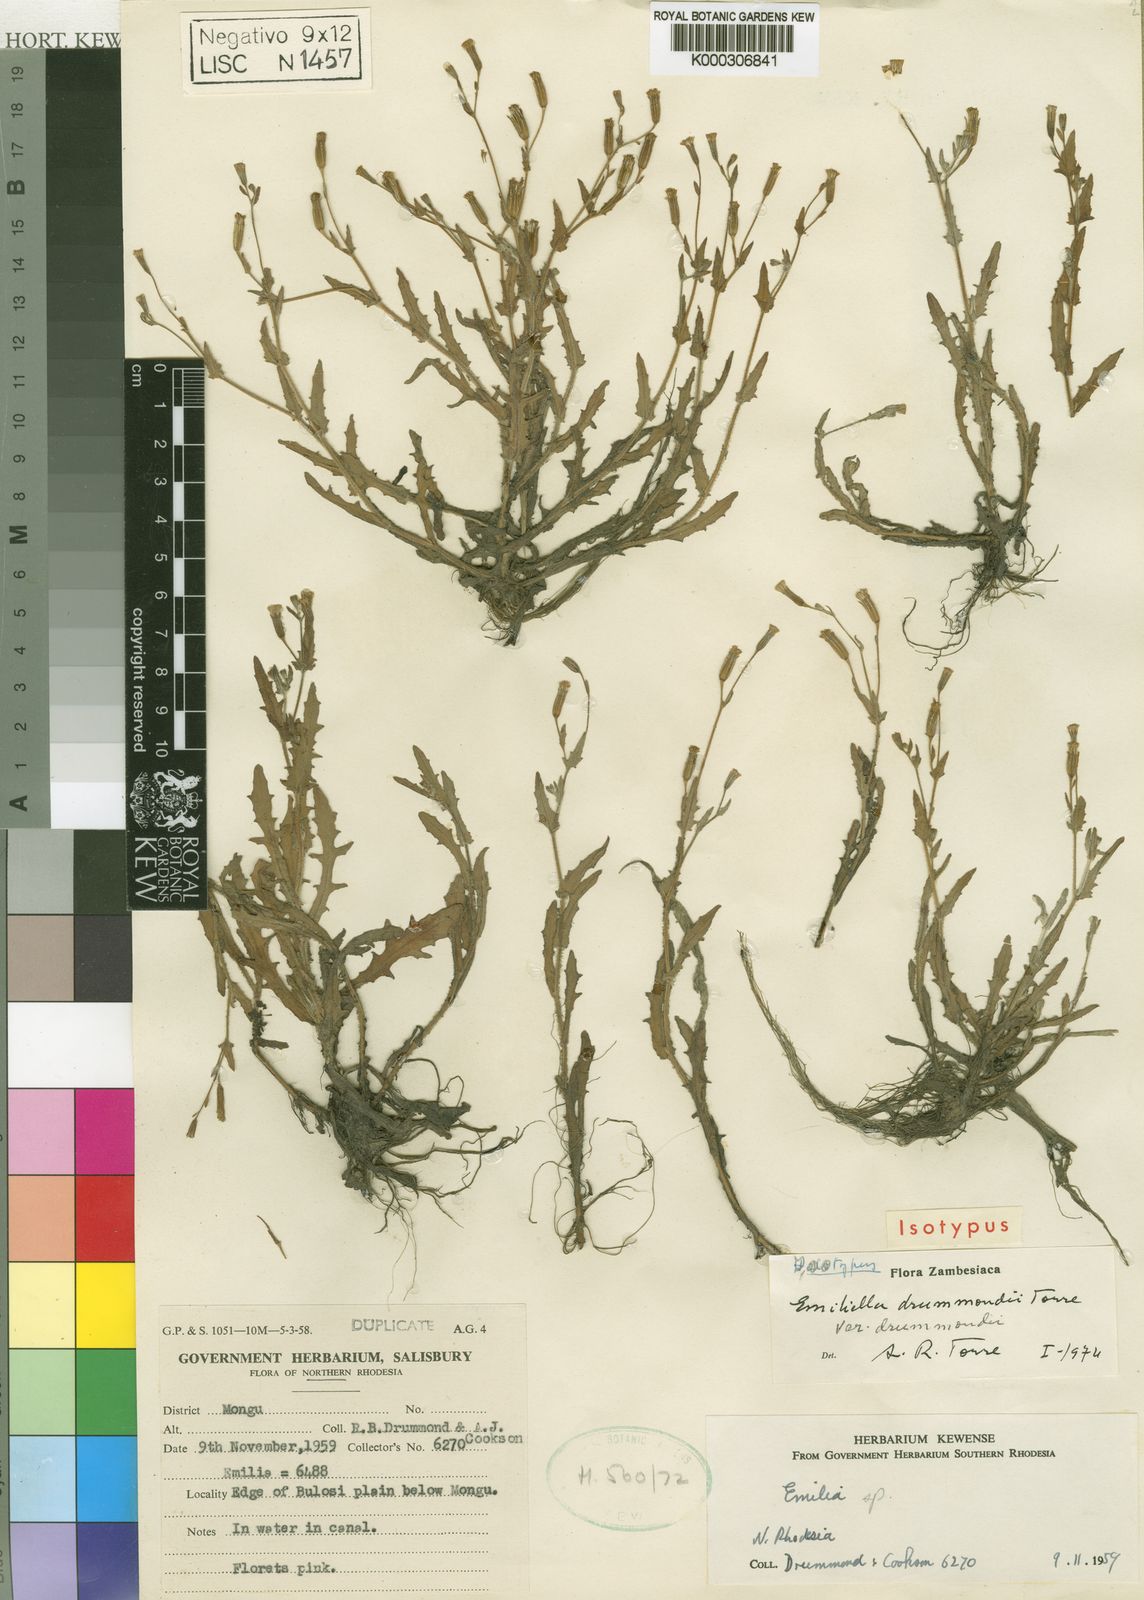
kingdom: Plantae
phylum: Tracheophyta
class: Magnoliopsida
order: Asterales
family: Asteraceae
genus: Emilia
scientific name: Emilia drummondii
